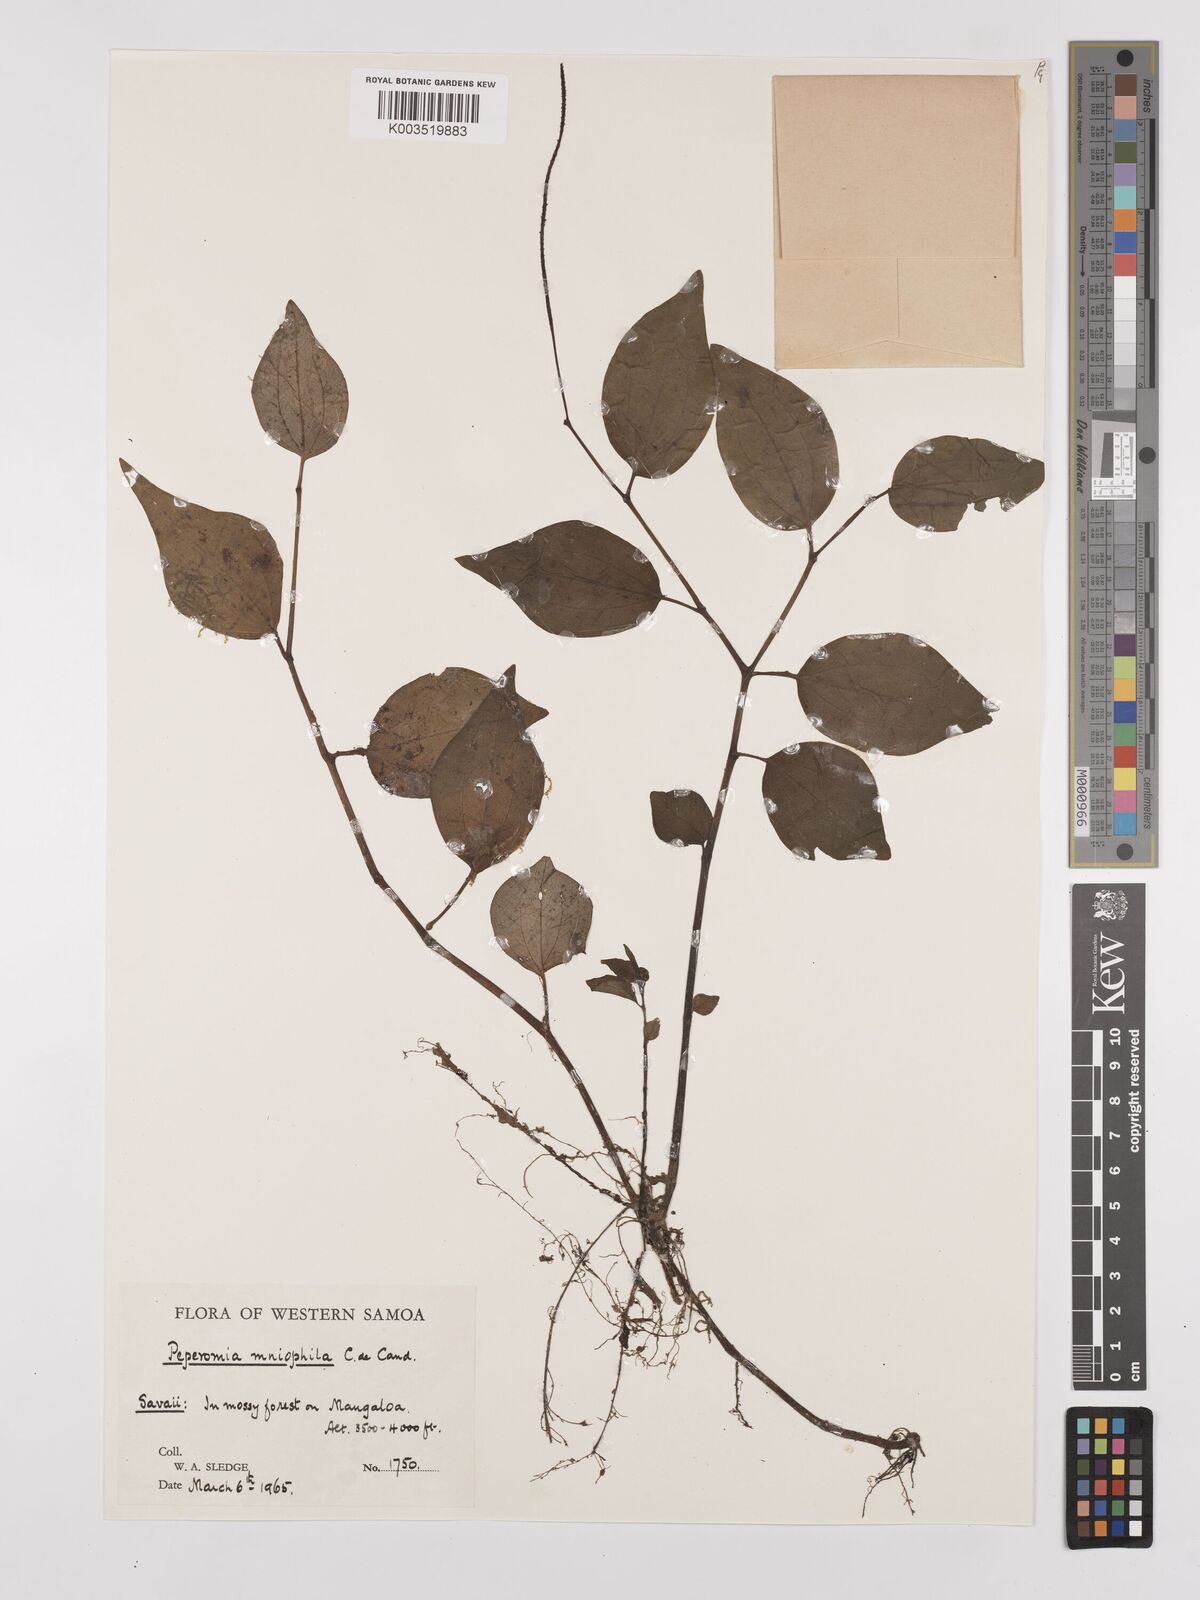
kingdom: Plantae
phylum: Tracheophyta
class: Magnoliopsida
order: Piperales
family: Piperaceae
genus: Peperomia
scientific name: Peperomia biformis
